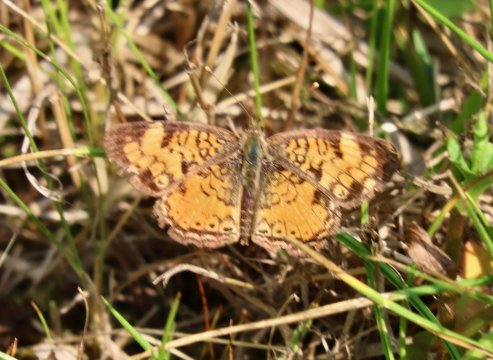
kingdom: Animalia
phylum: Arthropoda
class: Insecta
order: Lepidoptera
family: Nymphalidae
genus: Phyciodes
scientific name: Phyciodes tharos
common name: Pearl Crescent
